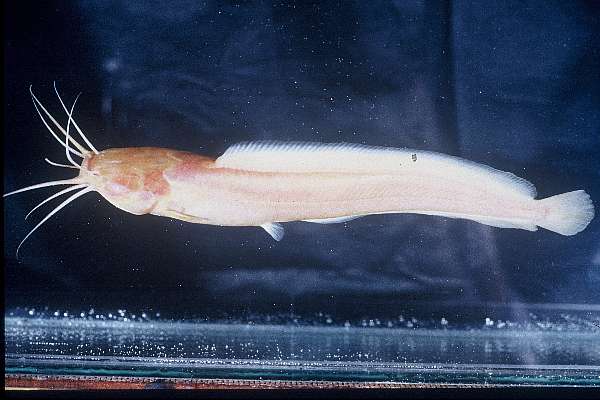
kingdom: Animalia
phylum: Chordata
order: Siluriformes
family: Clariidae
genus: Clarias
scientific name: Clarias cavernicola
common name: Cave catfish
